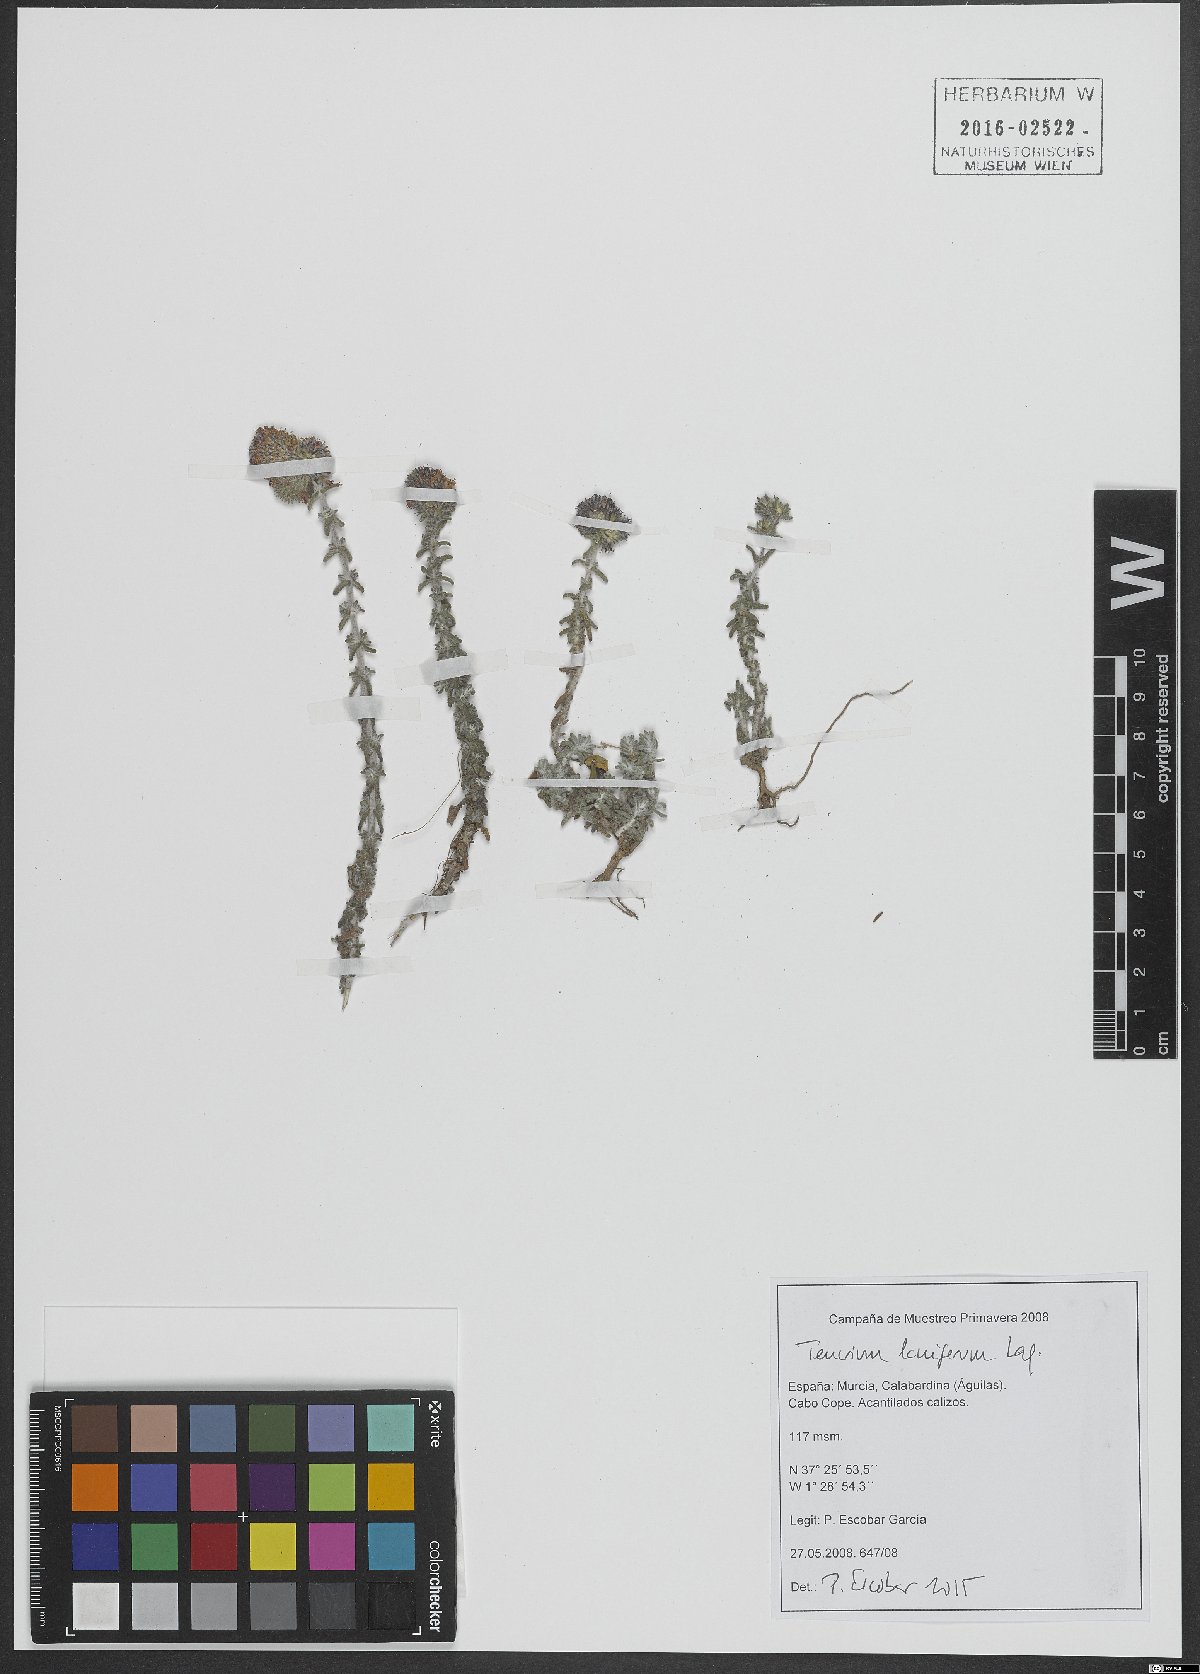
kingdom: Plantae
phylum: Tracheophyta
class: Magnoliopsida
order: Lamiales
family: Lamiaceae
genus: Teucrium
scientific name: Teucrium lanigerum
